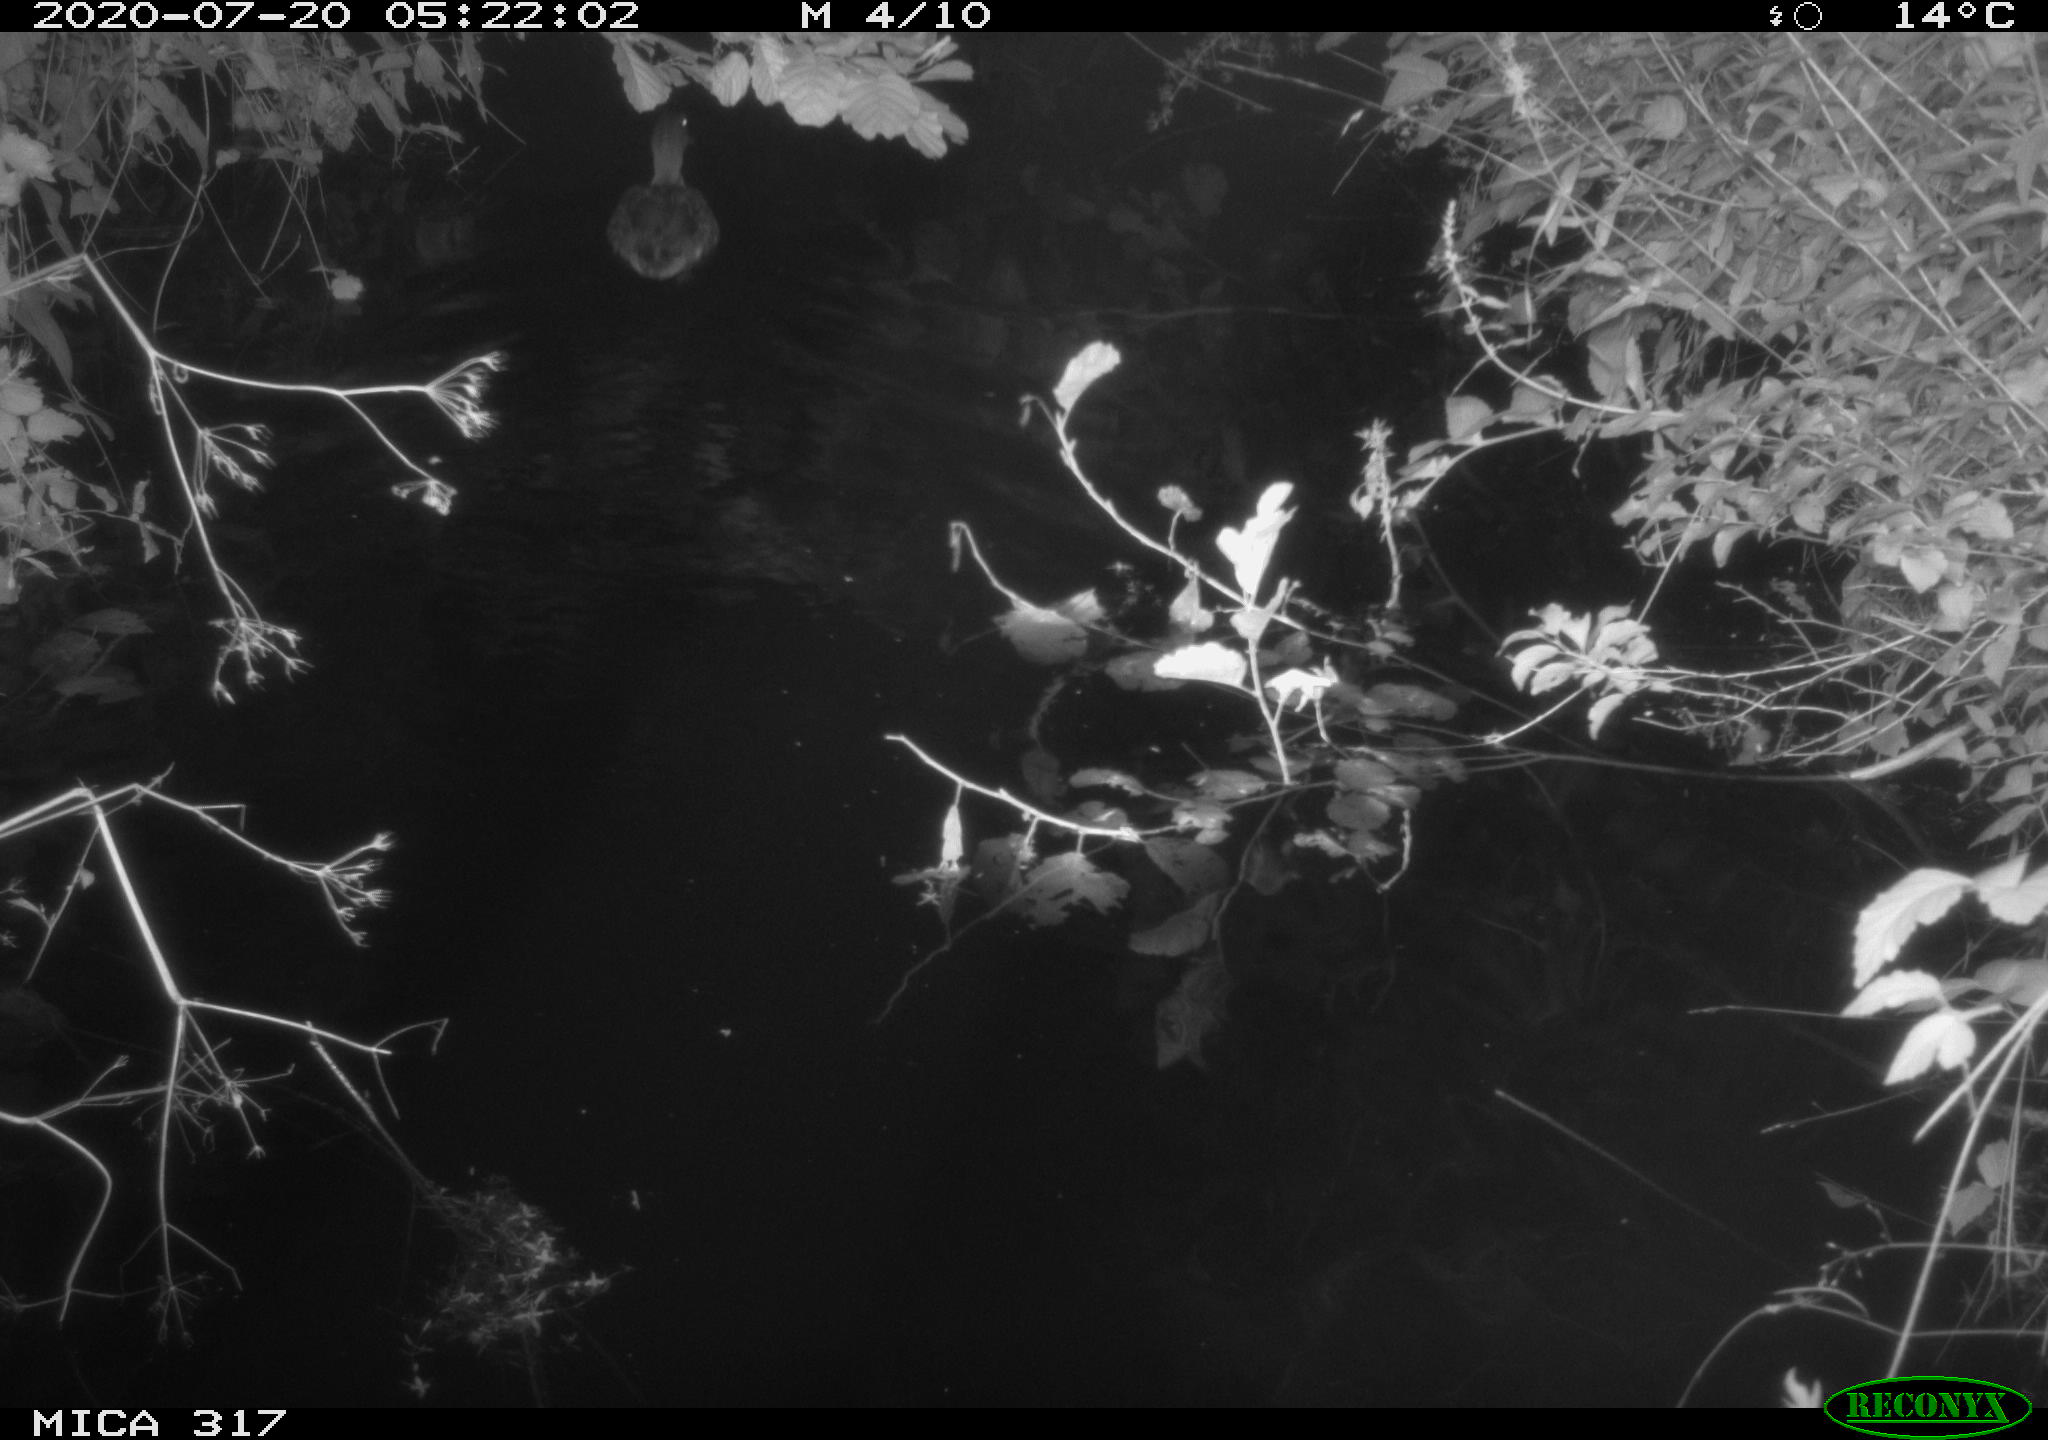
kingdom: Animalia
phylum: Chordata
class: Aves
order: Anseriformes
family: Anatidae
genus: Anas
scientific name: Anas platyrhynchos
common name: Mallard
